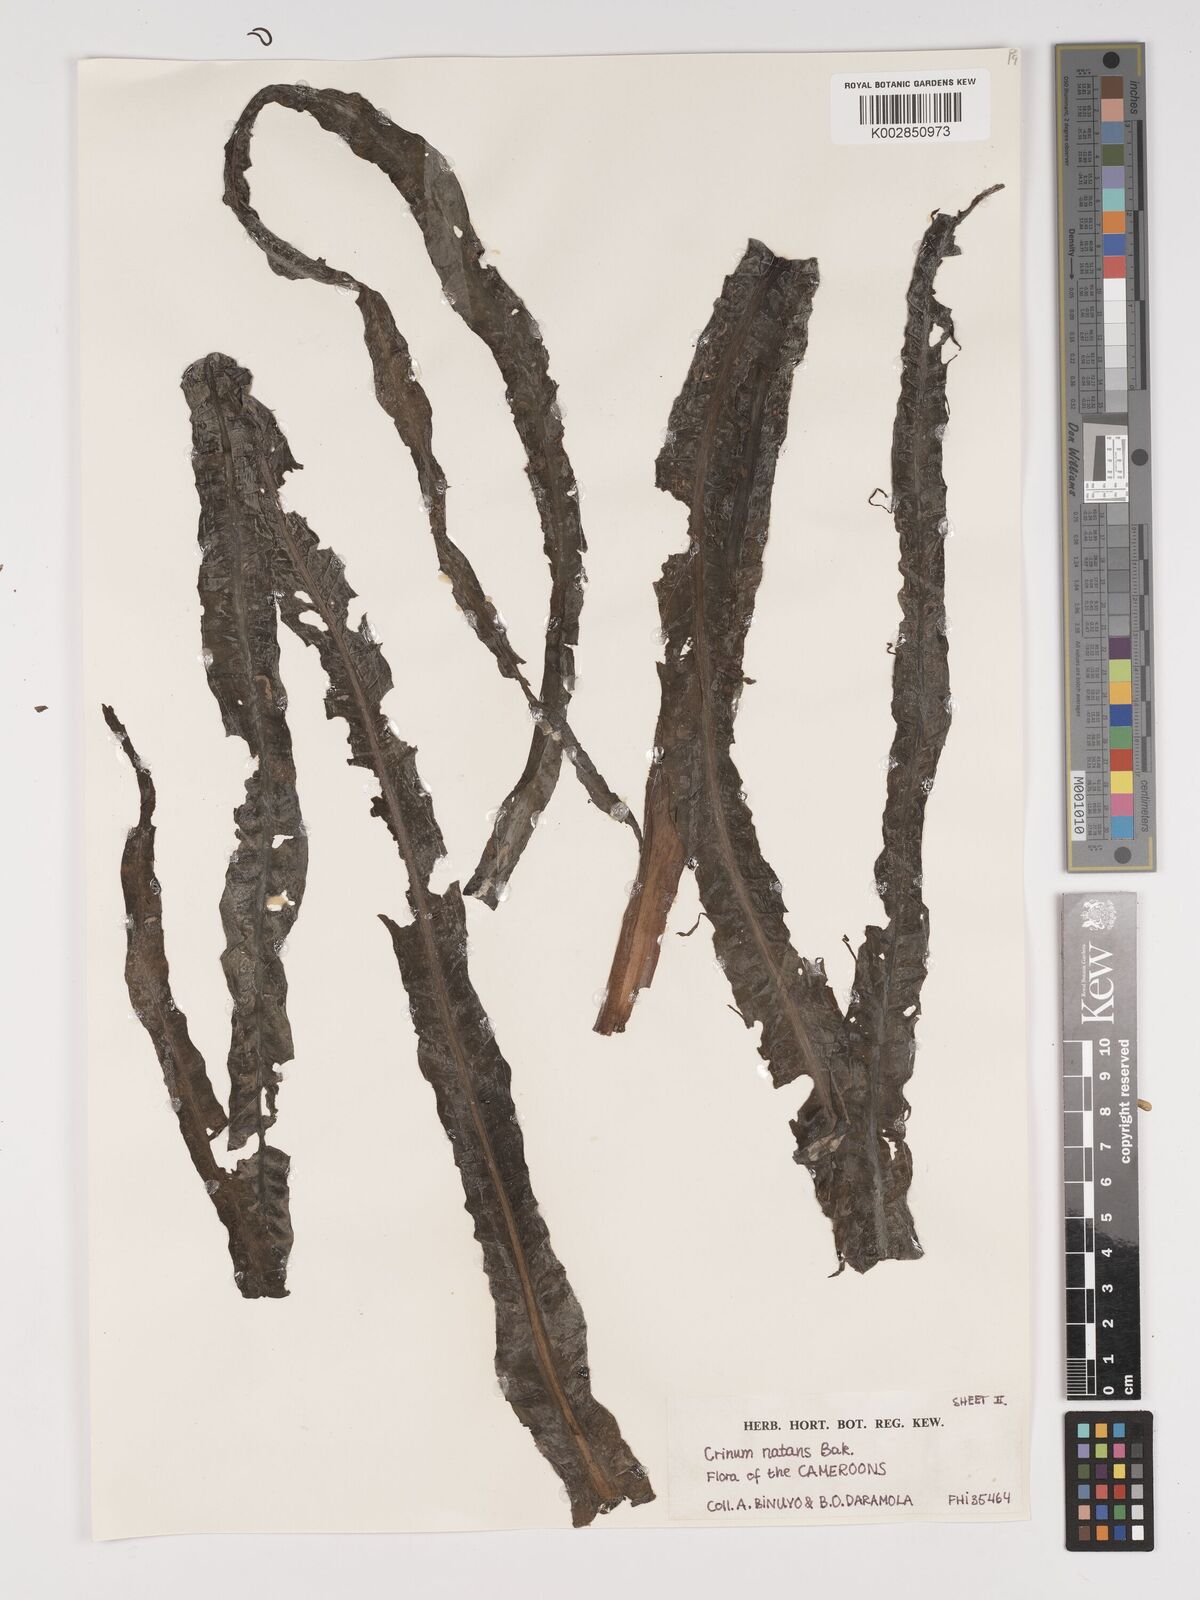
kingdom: Plantae
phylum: Tracheophyta
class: Liliopsida
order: Asparagales
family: Amaryllidaceae
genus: Crinum
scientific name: Crinum moorei
